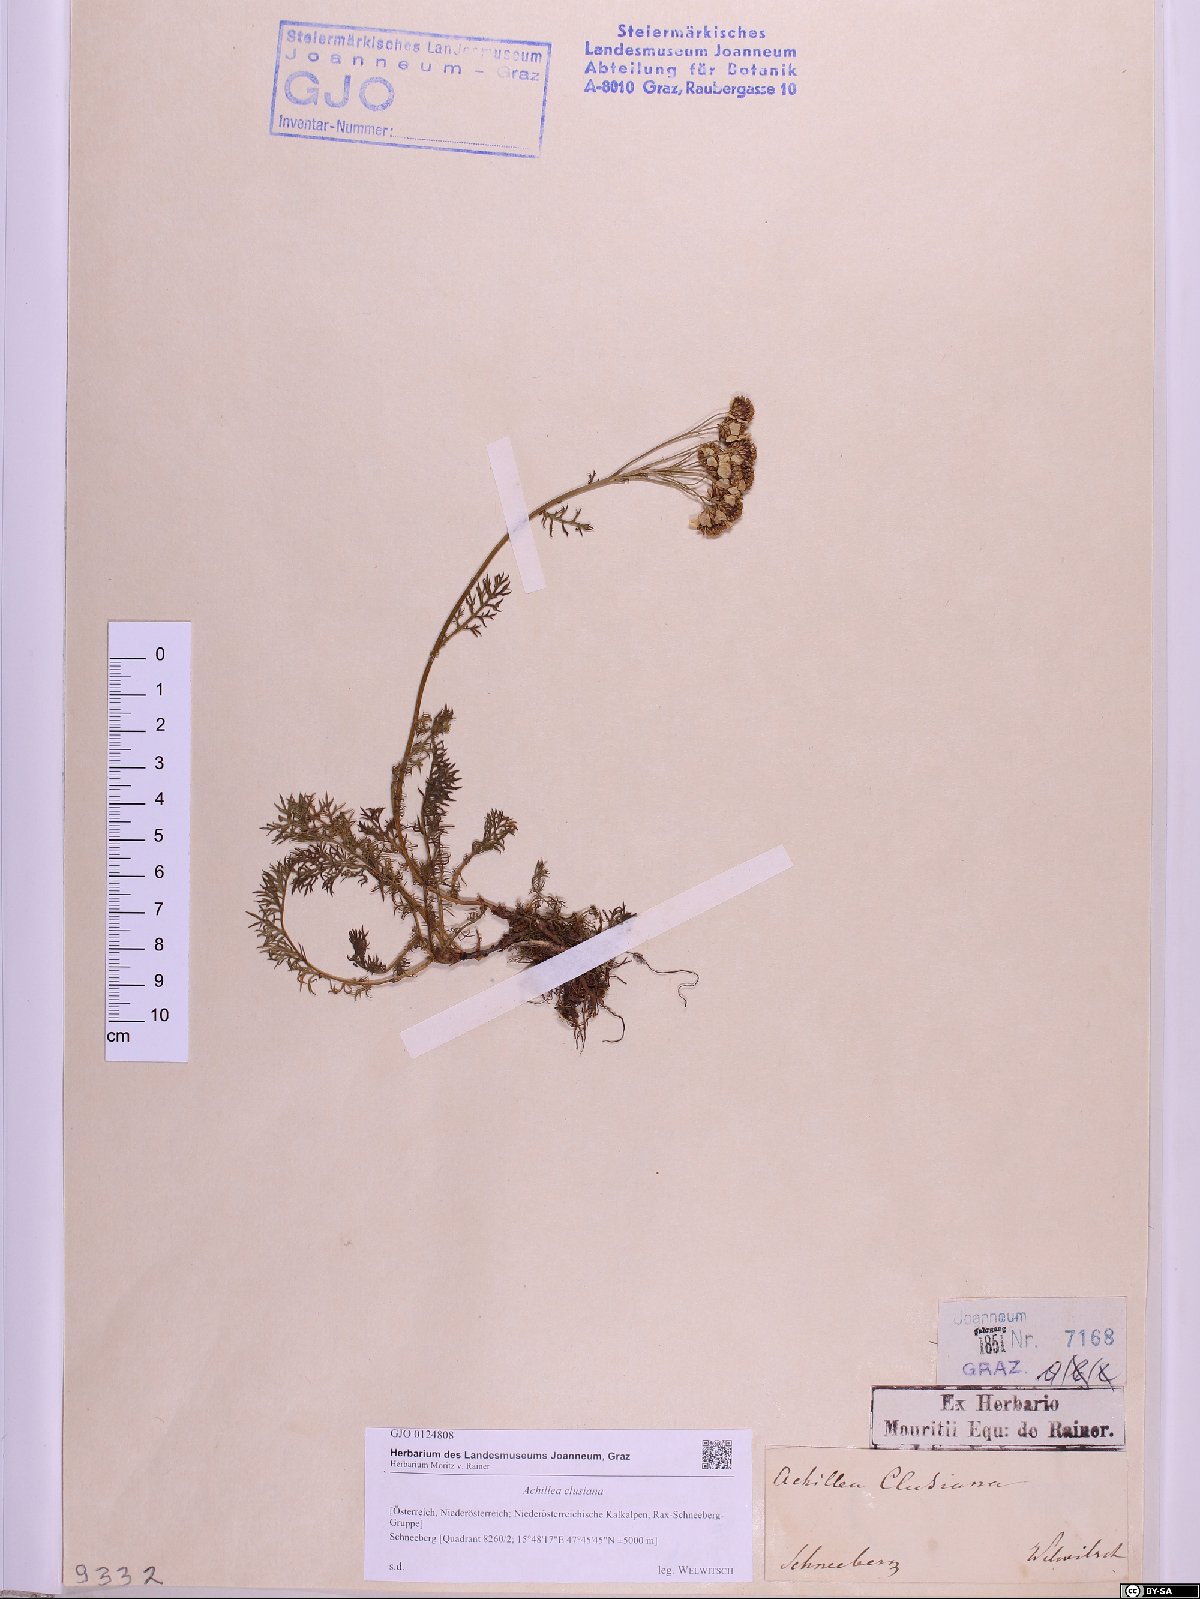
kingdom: Plantae
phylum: Tracheophyta
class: Magnoliopsida
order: Asterales
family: Asteraceae
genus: Achillea
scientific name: Achillea clusiana
